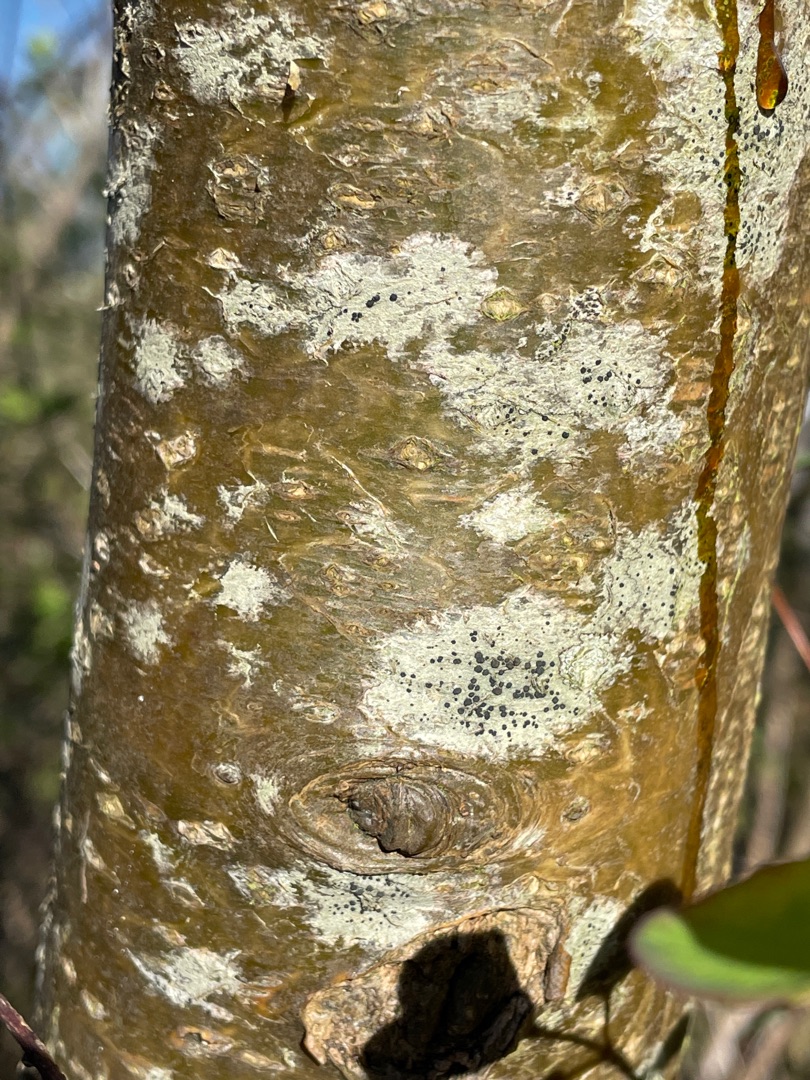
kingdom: Fungi
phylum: Ascomycota
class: Lecanoromycetes
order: Lecanorales
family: Lecanoraceae
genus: Lecidella
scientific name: Lecidella elaeochroma
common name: Grågrøn skivelav
